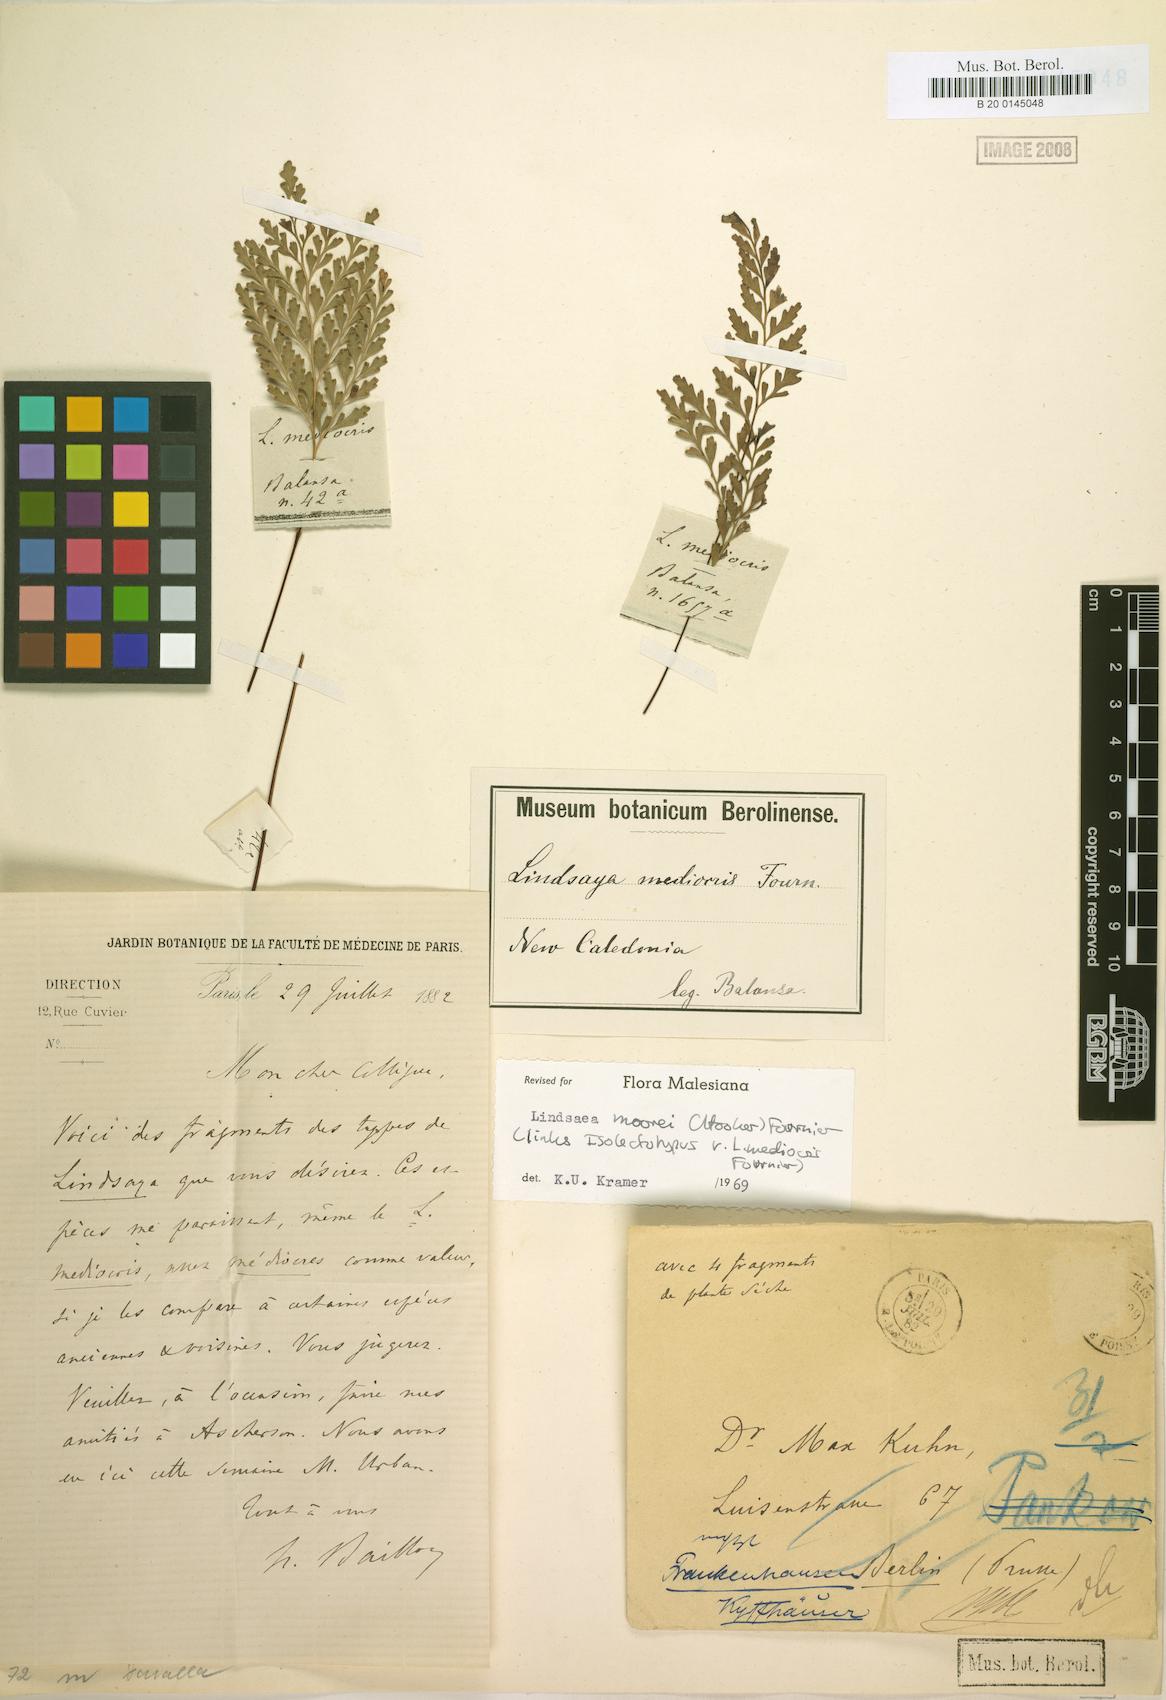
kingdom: Plantae
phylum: Tracheophyta
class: Polypodiopsida
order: Polypodiales
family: Lindsaeaceae
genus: Tapeinidium
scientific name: Tapeinidium moorei
